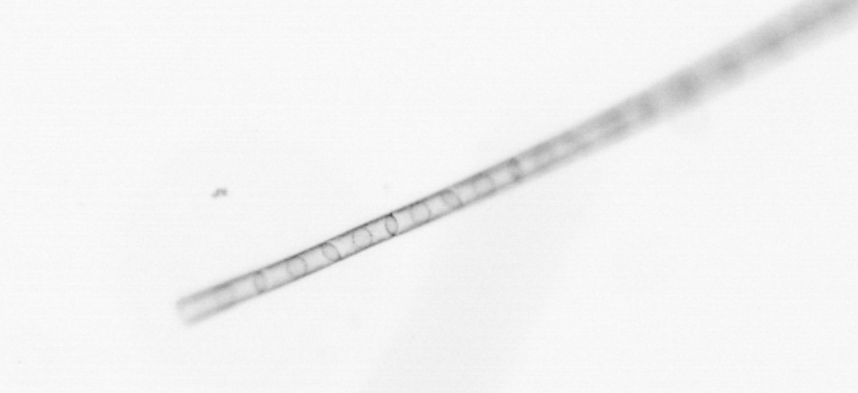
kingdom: Chromista
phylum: Ochrophyta
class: Bacillariophyceae
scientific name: Bacillariophyceae
